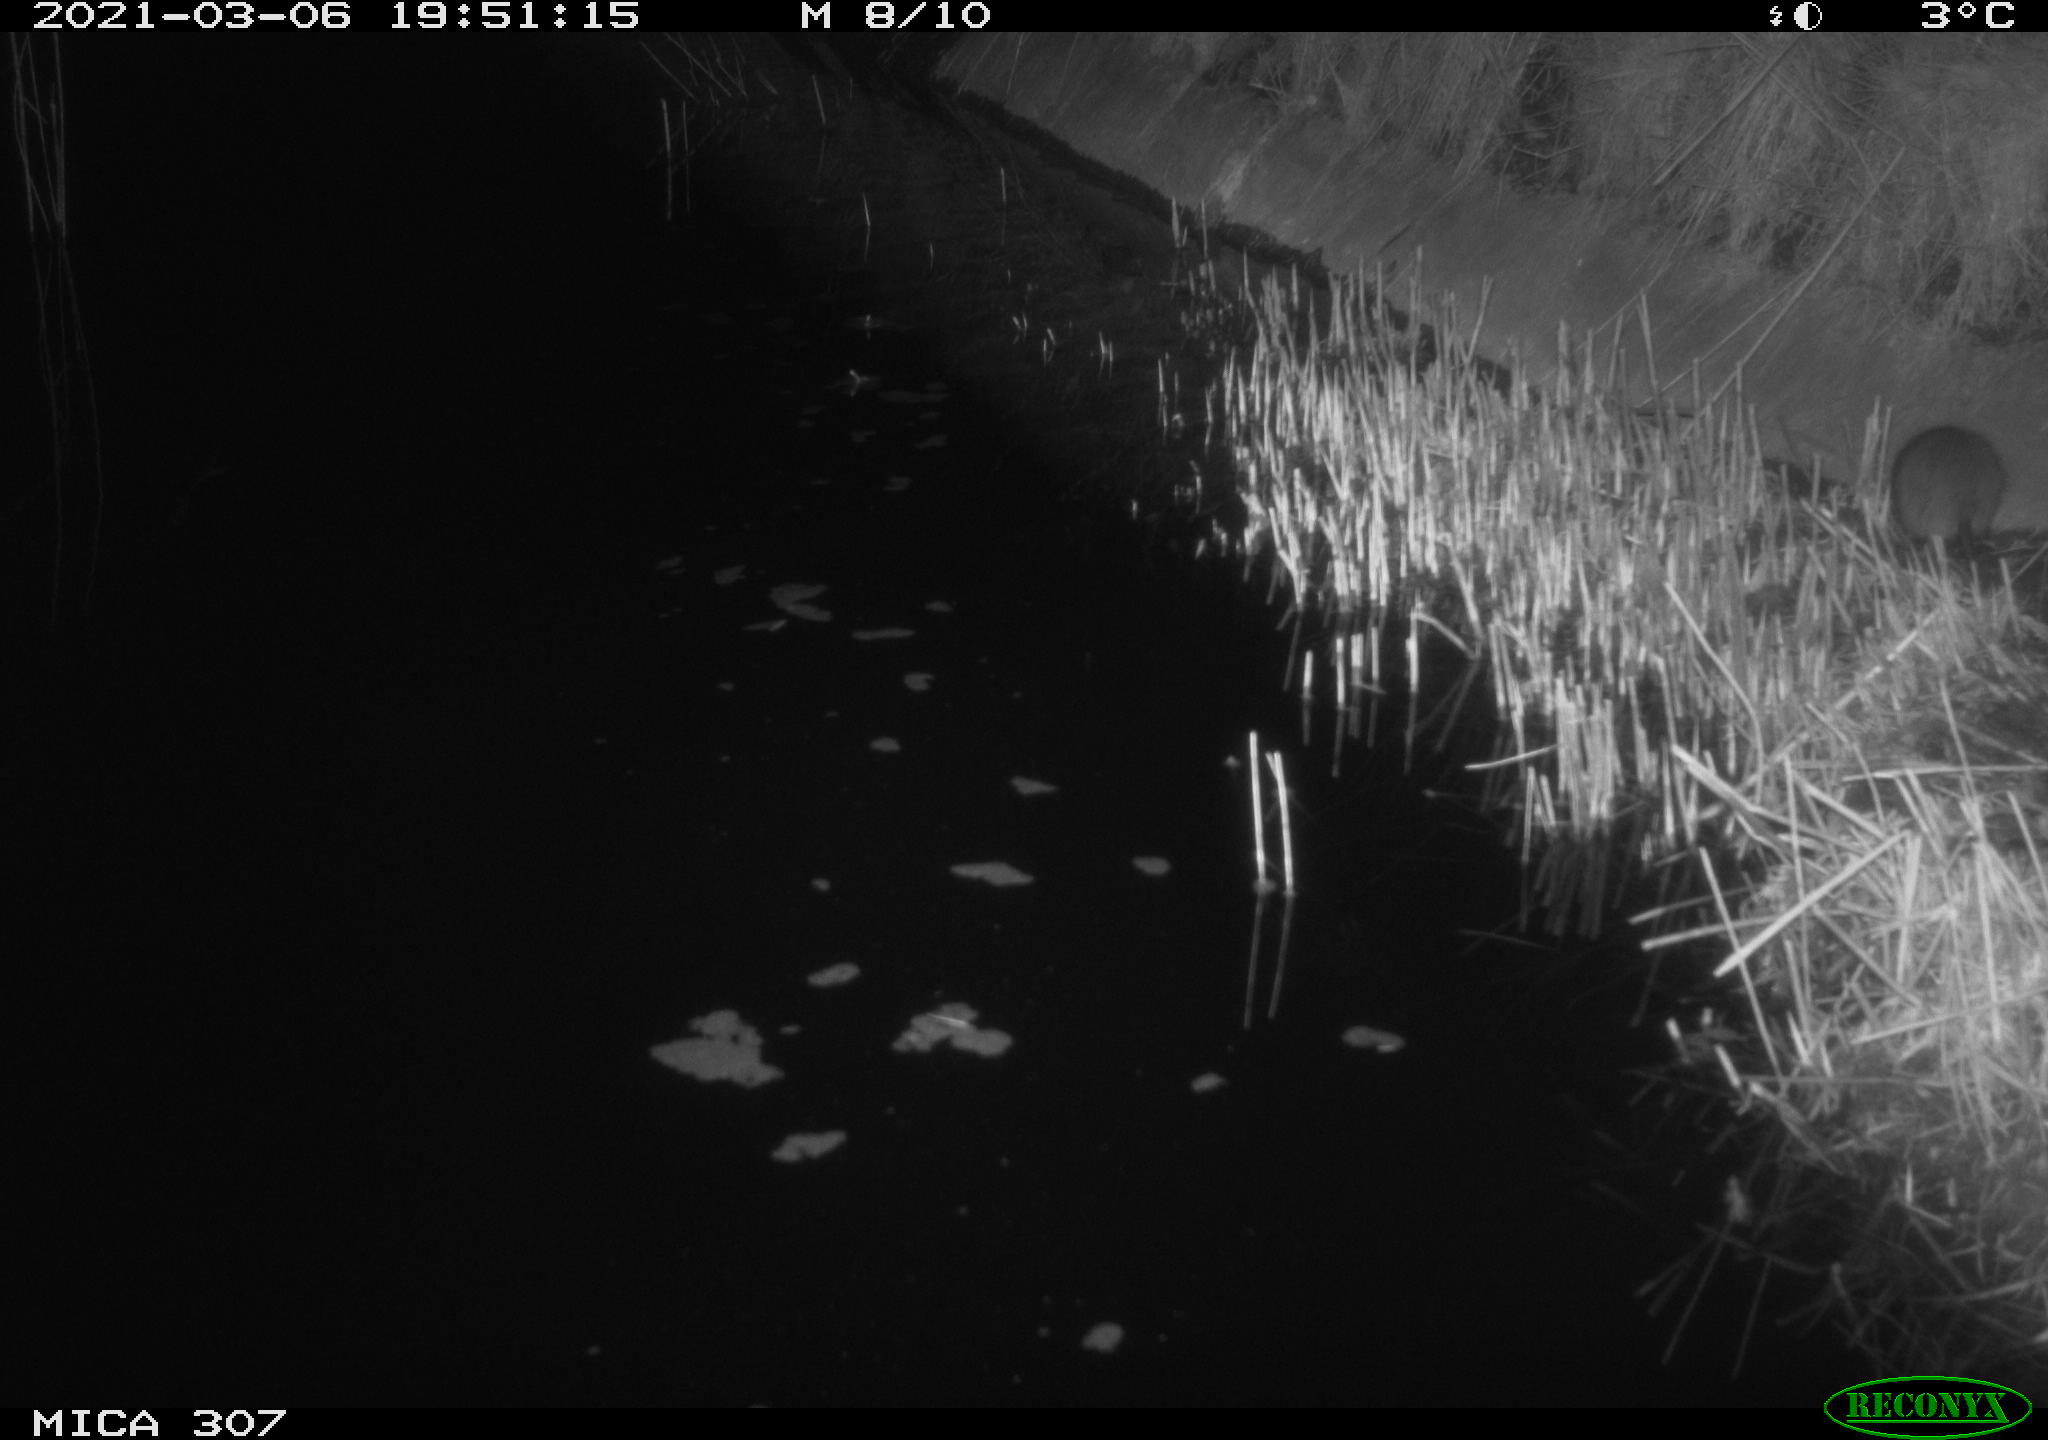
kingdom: Animalia
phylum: Chordata
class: Mammalia
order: Rodentia
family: Muridae
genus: Rattus
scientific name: Rattus norvegicus
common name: Brown rat
